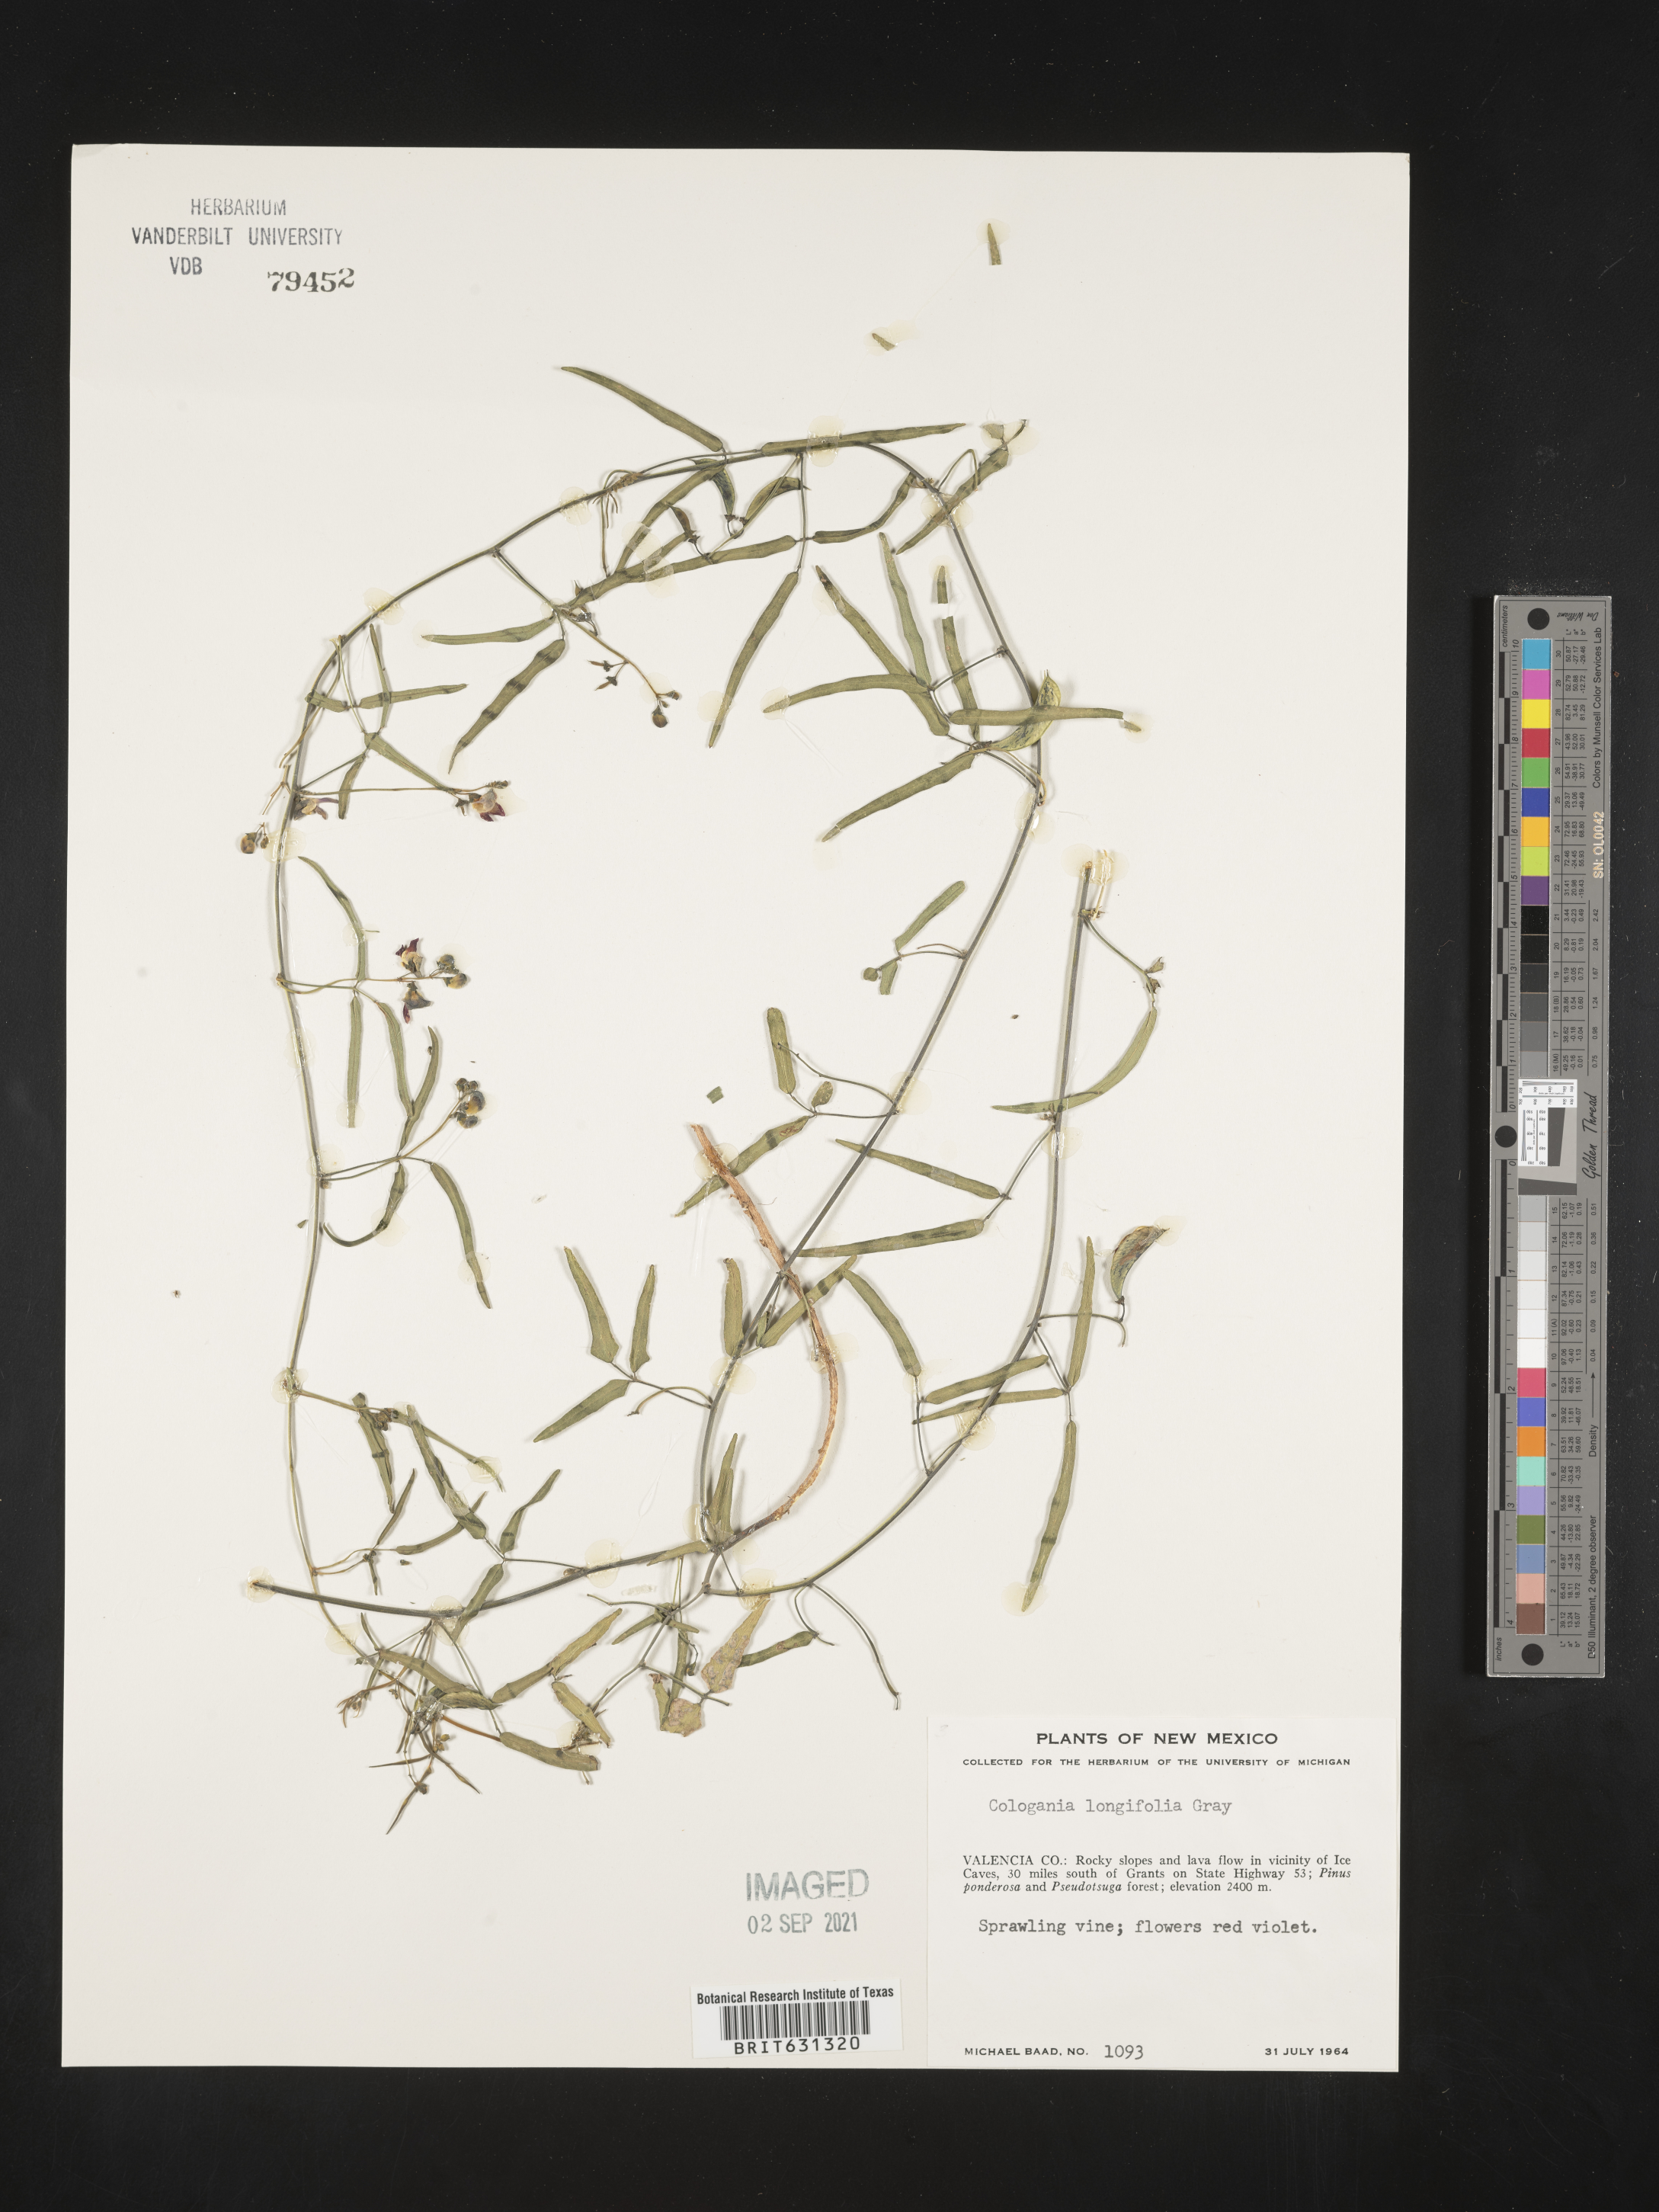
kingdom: Plantae
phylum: Tracheophyta
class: Magnoliopsida
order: Fabales
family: Fabaceae
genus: Cologania
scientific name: Cologania angustifolia
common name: Longleaf cologania
